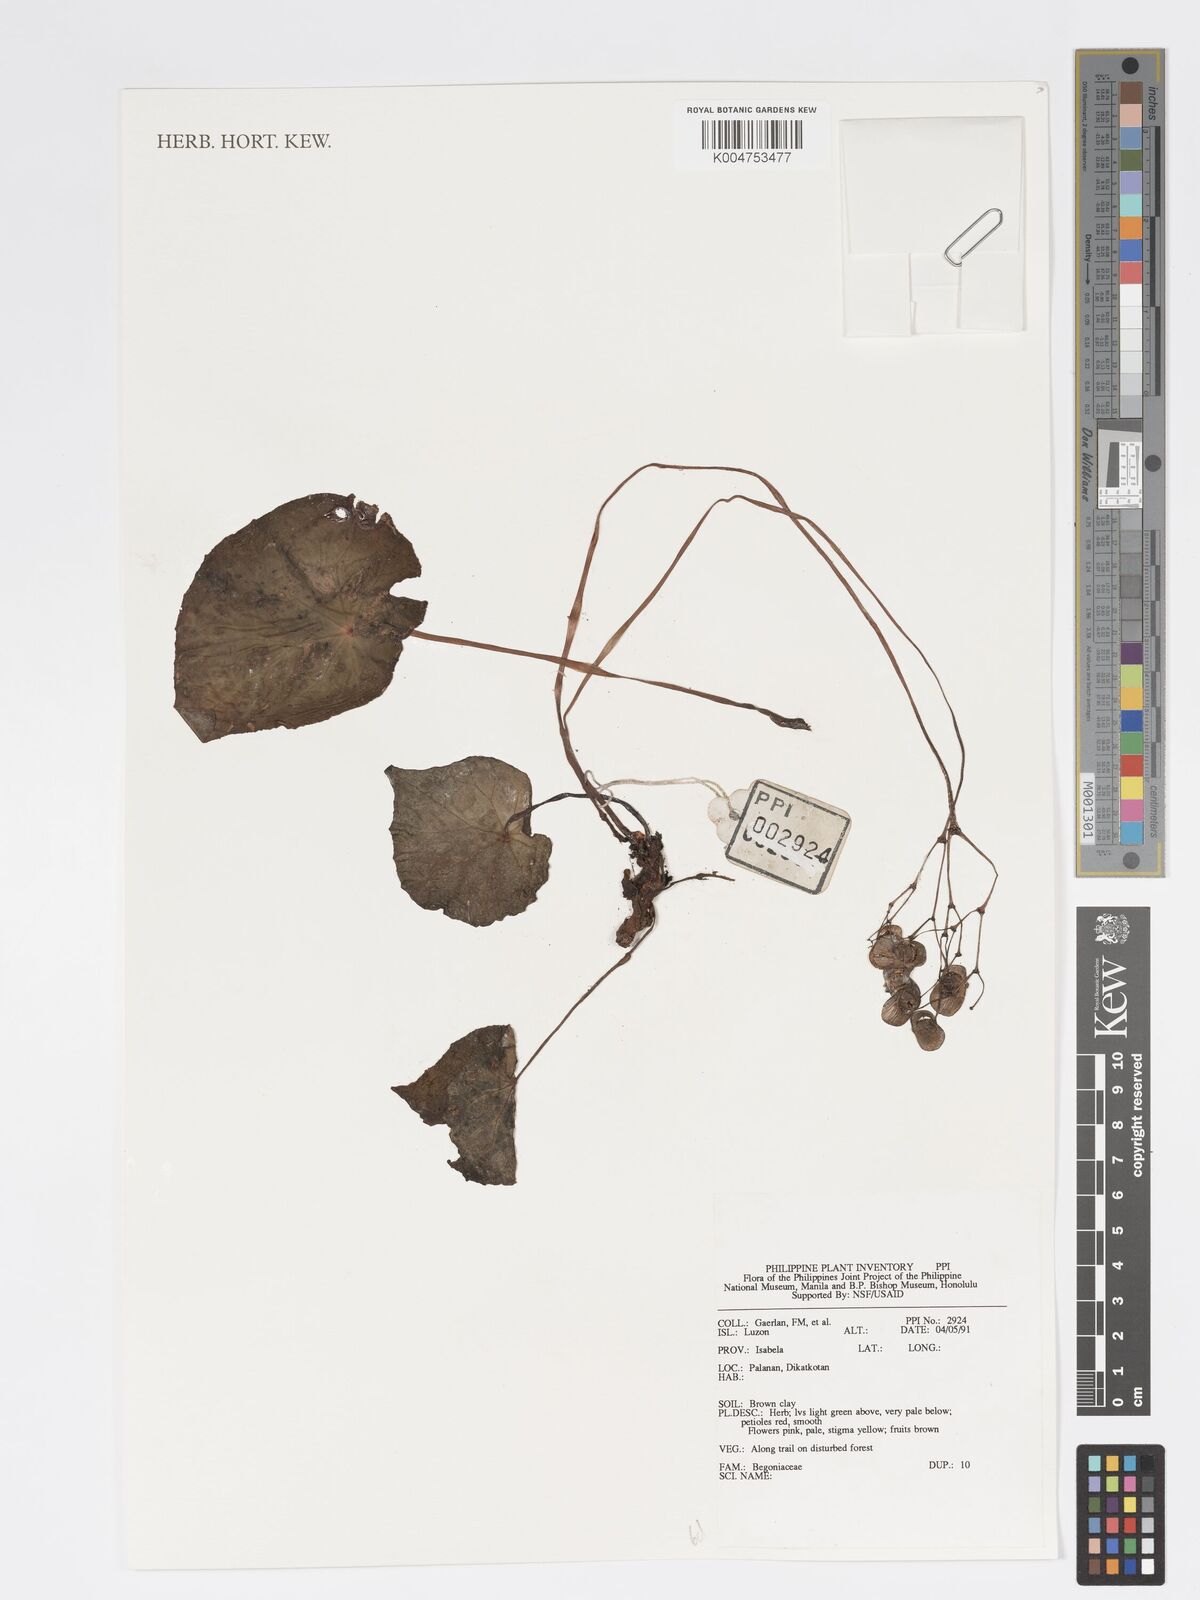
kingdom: Plantae
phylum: Tracheophyta
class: Magnoliopsida
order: Cucurbitales
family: Begoniaceae
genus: Begonia
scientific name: Begonia
